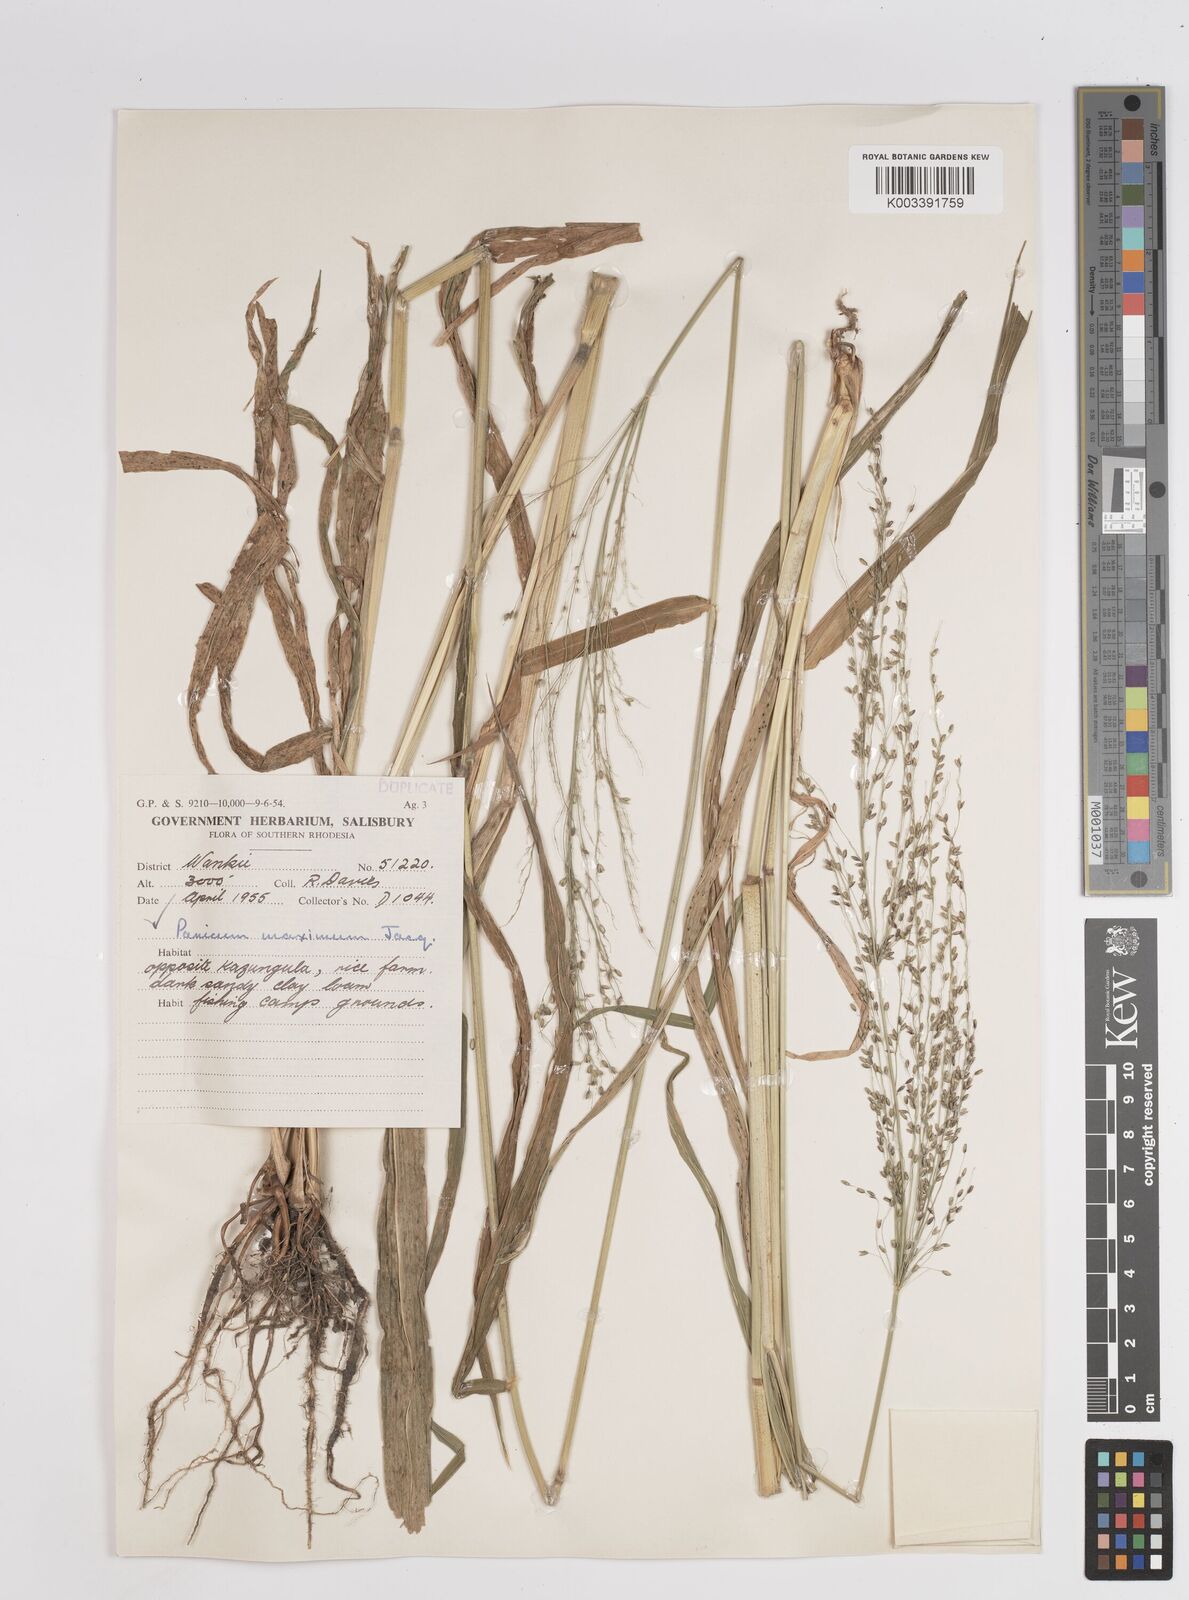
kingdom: Plantae
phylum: Tracheophyta
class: Liliopsida
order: Poales
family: Poaceae
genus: Megathyrsus
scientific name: Megathyrsus maximus
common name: Guineagrass
